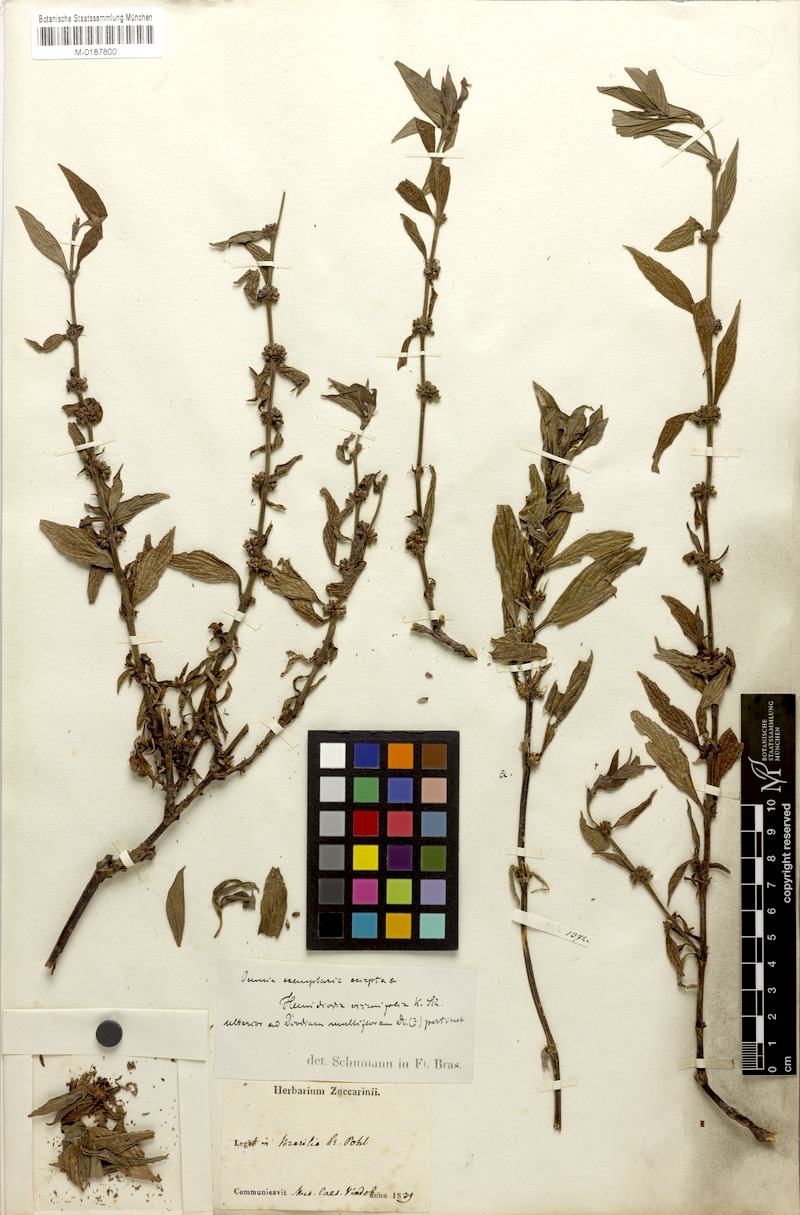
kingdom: Plantae
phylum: Tracheophyta
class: Magnoliopsida
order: Gentianales
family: Rubiaceae
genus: Spermacoce
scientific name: Spermacoce ocymifolia
